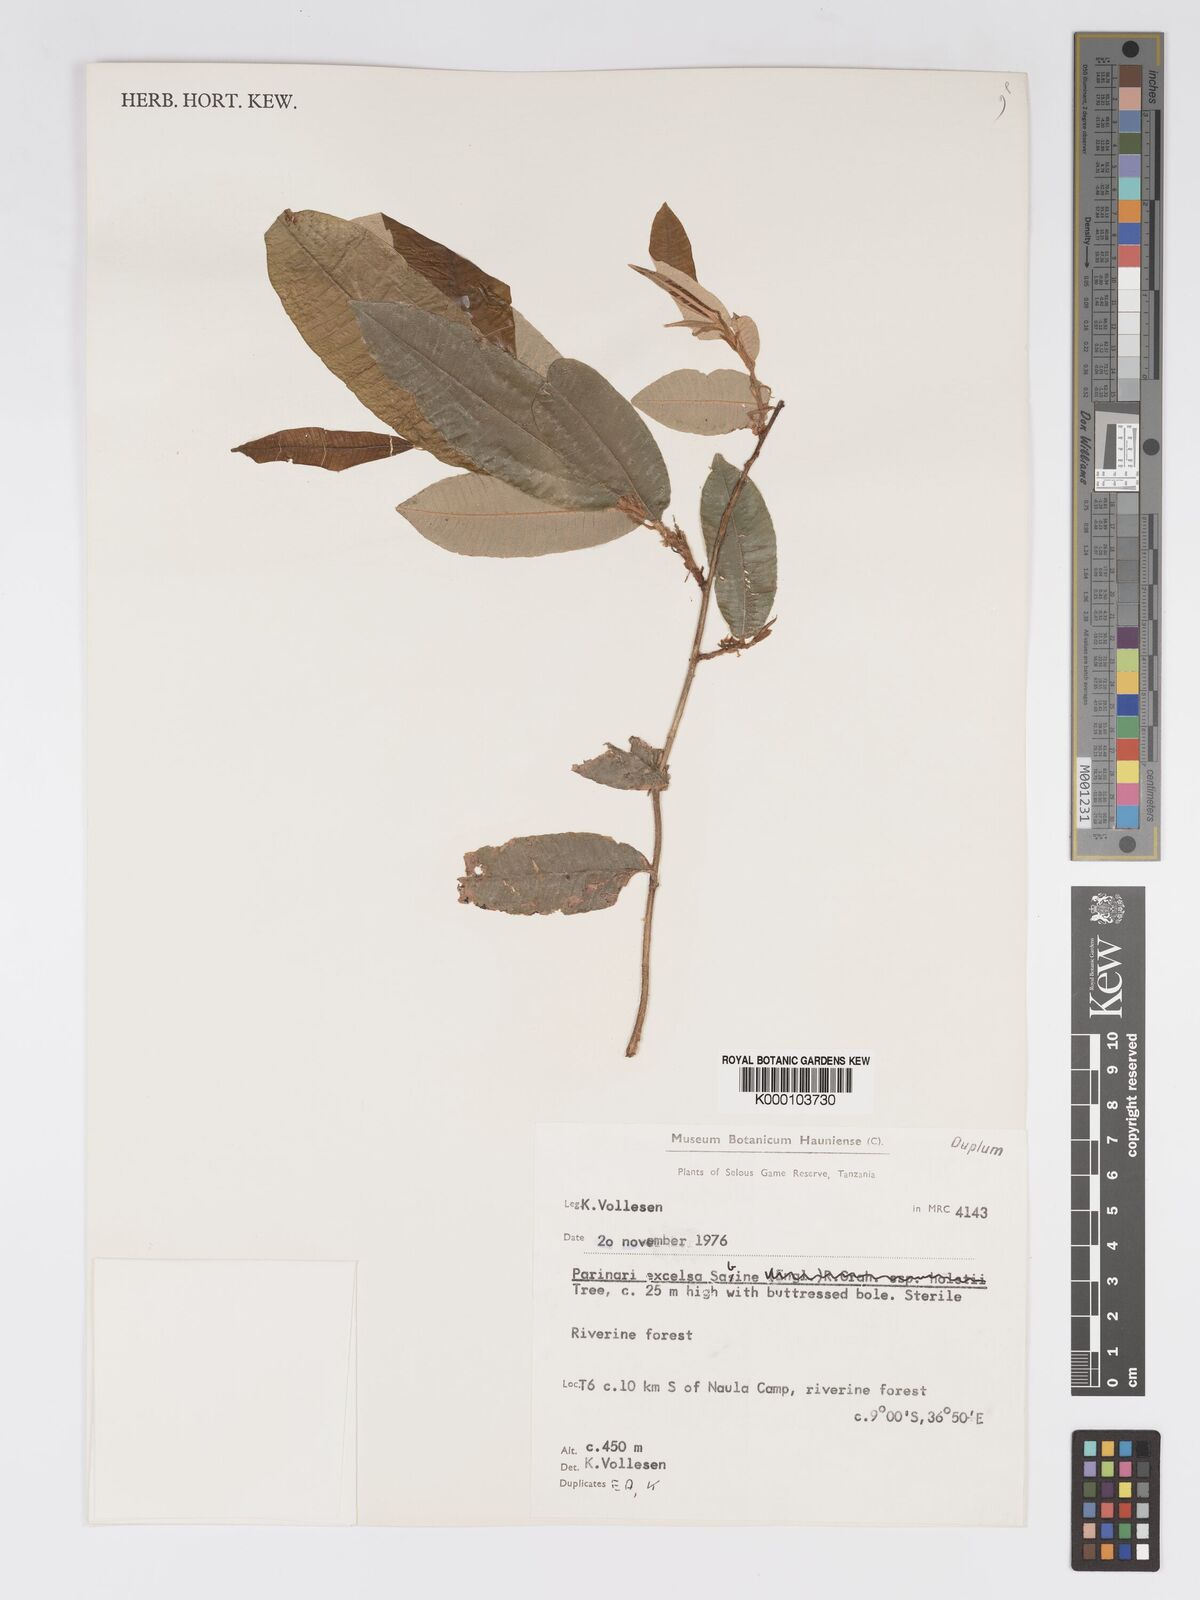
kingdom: Plantae
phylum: Tracheophyta
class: Magnoliopsida
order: Malpighiales
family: Chrysobalanaceae
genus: Parinari
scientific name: Parinari excelsa
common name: Guinea-plum
